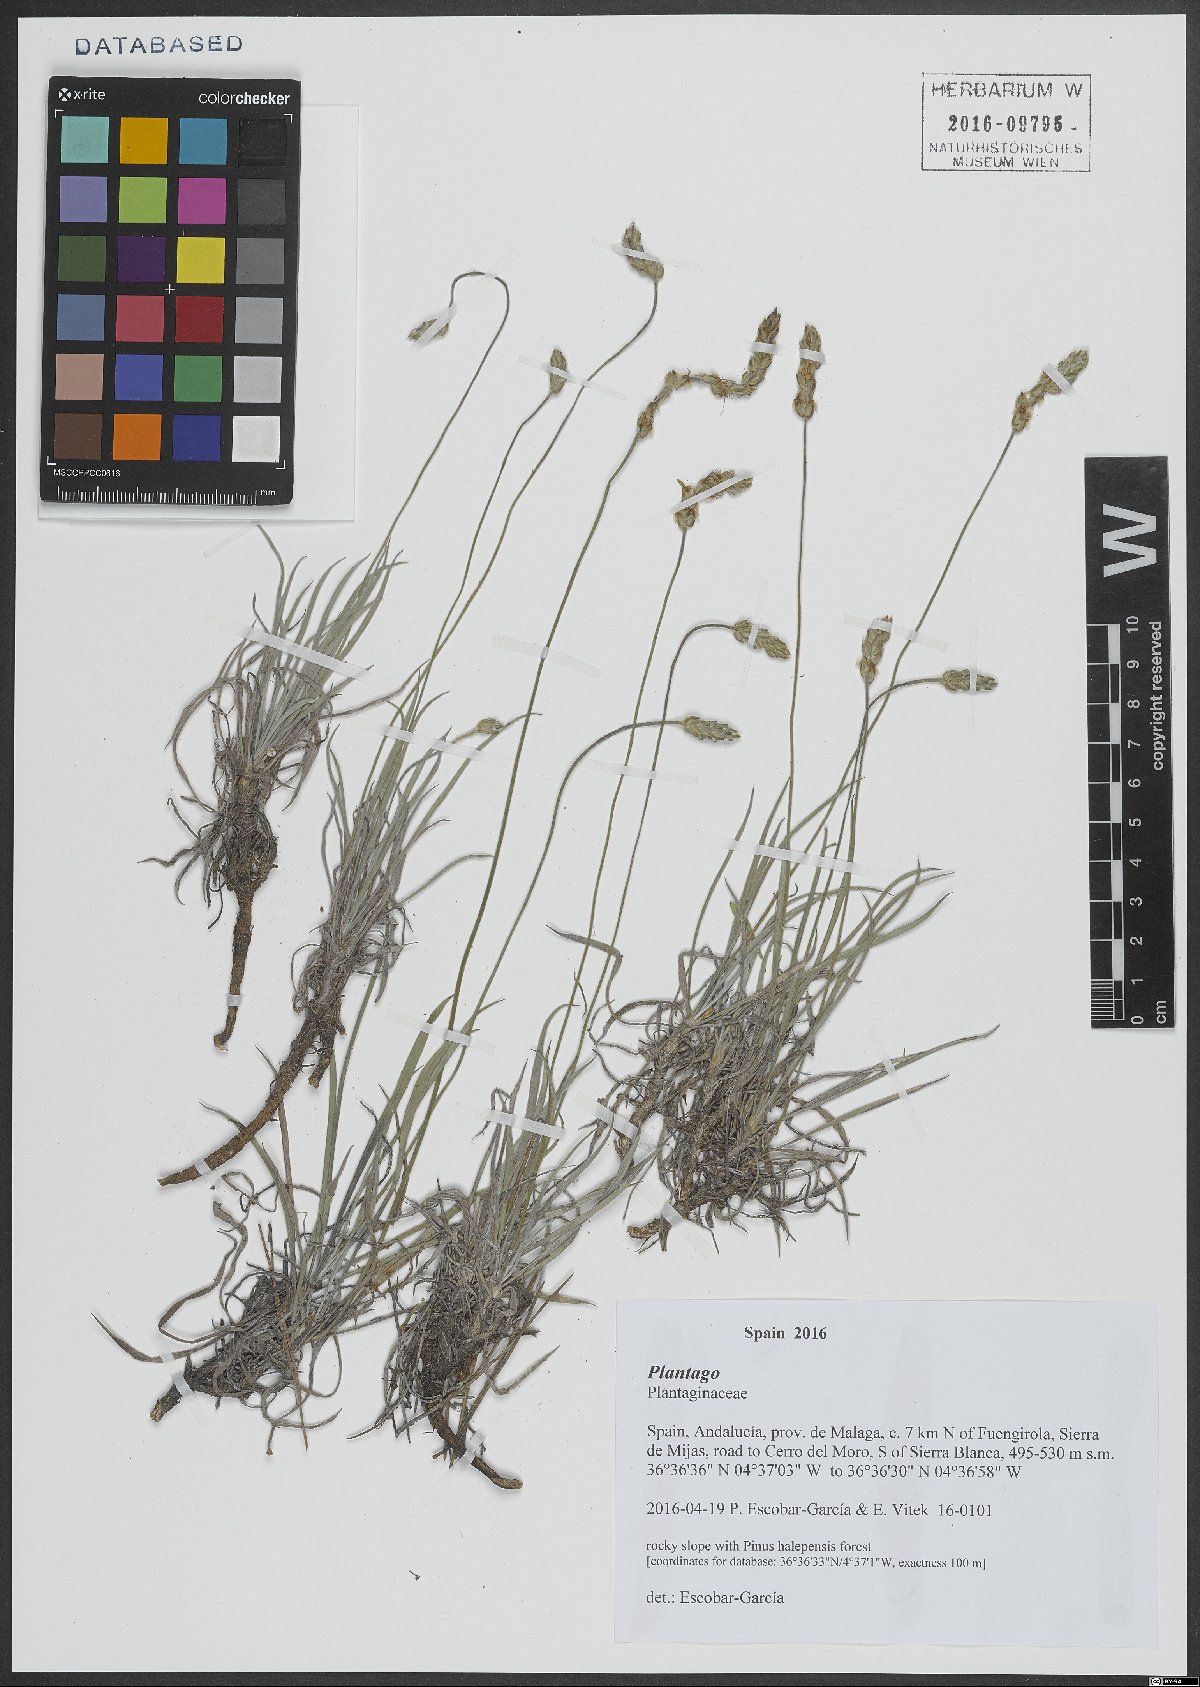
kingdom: Plantae
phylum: Tracheophyta
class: Magnoliopsida
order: Lamiales
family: Plantaginaceae
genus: Plantago
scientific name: Plantago
